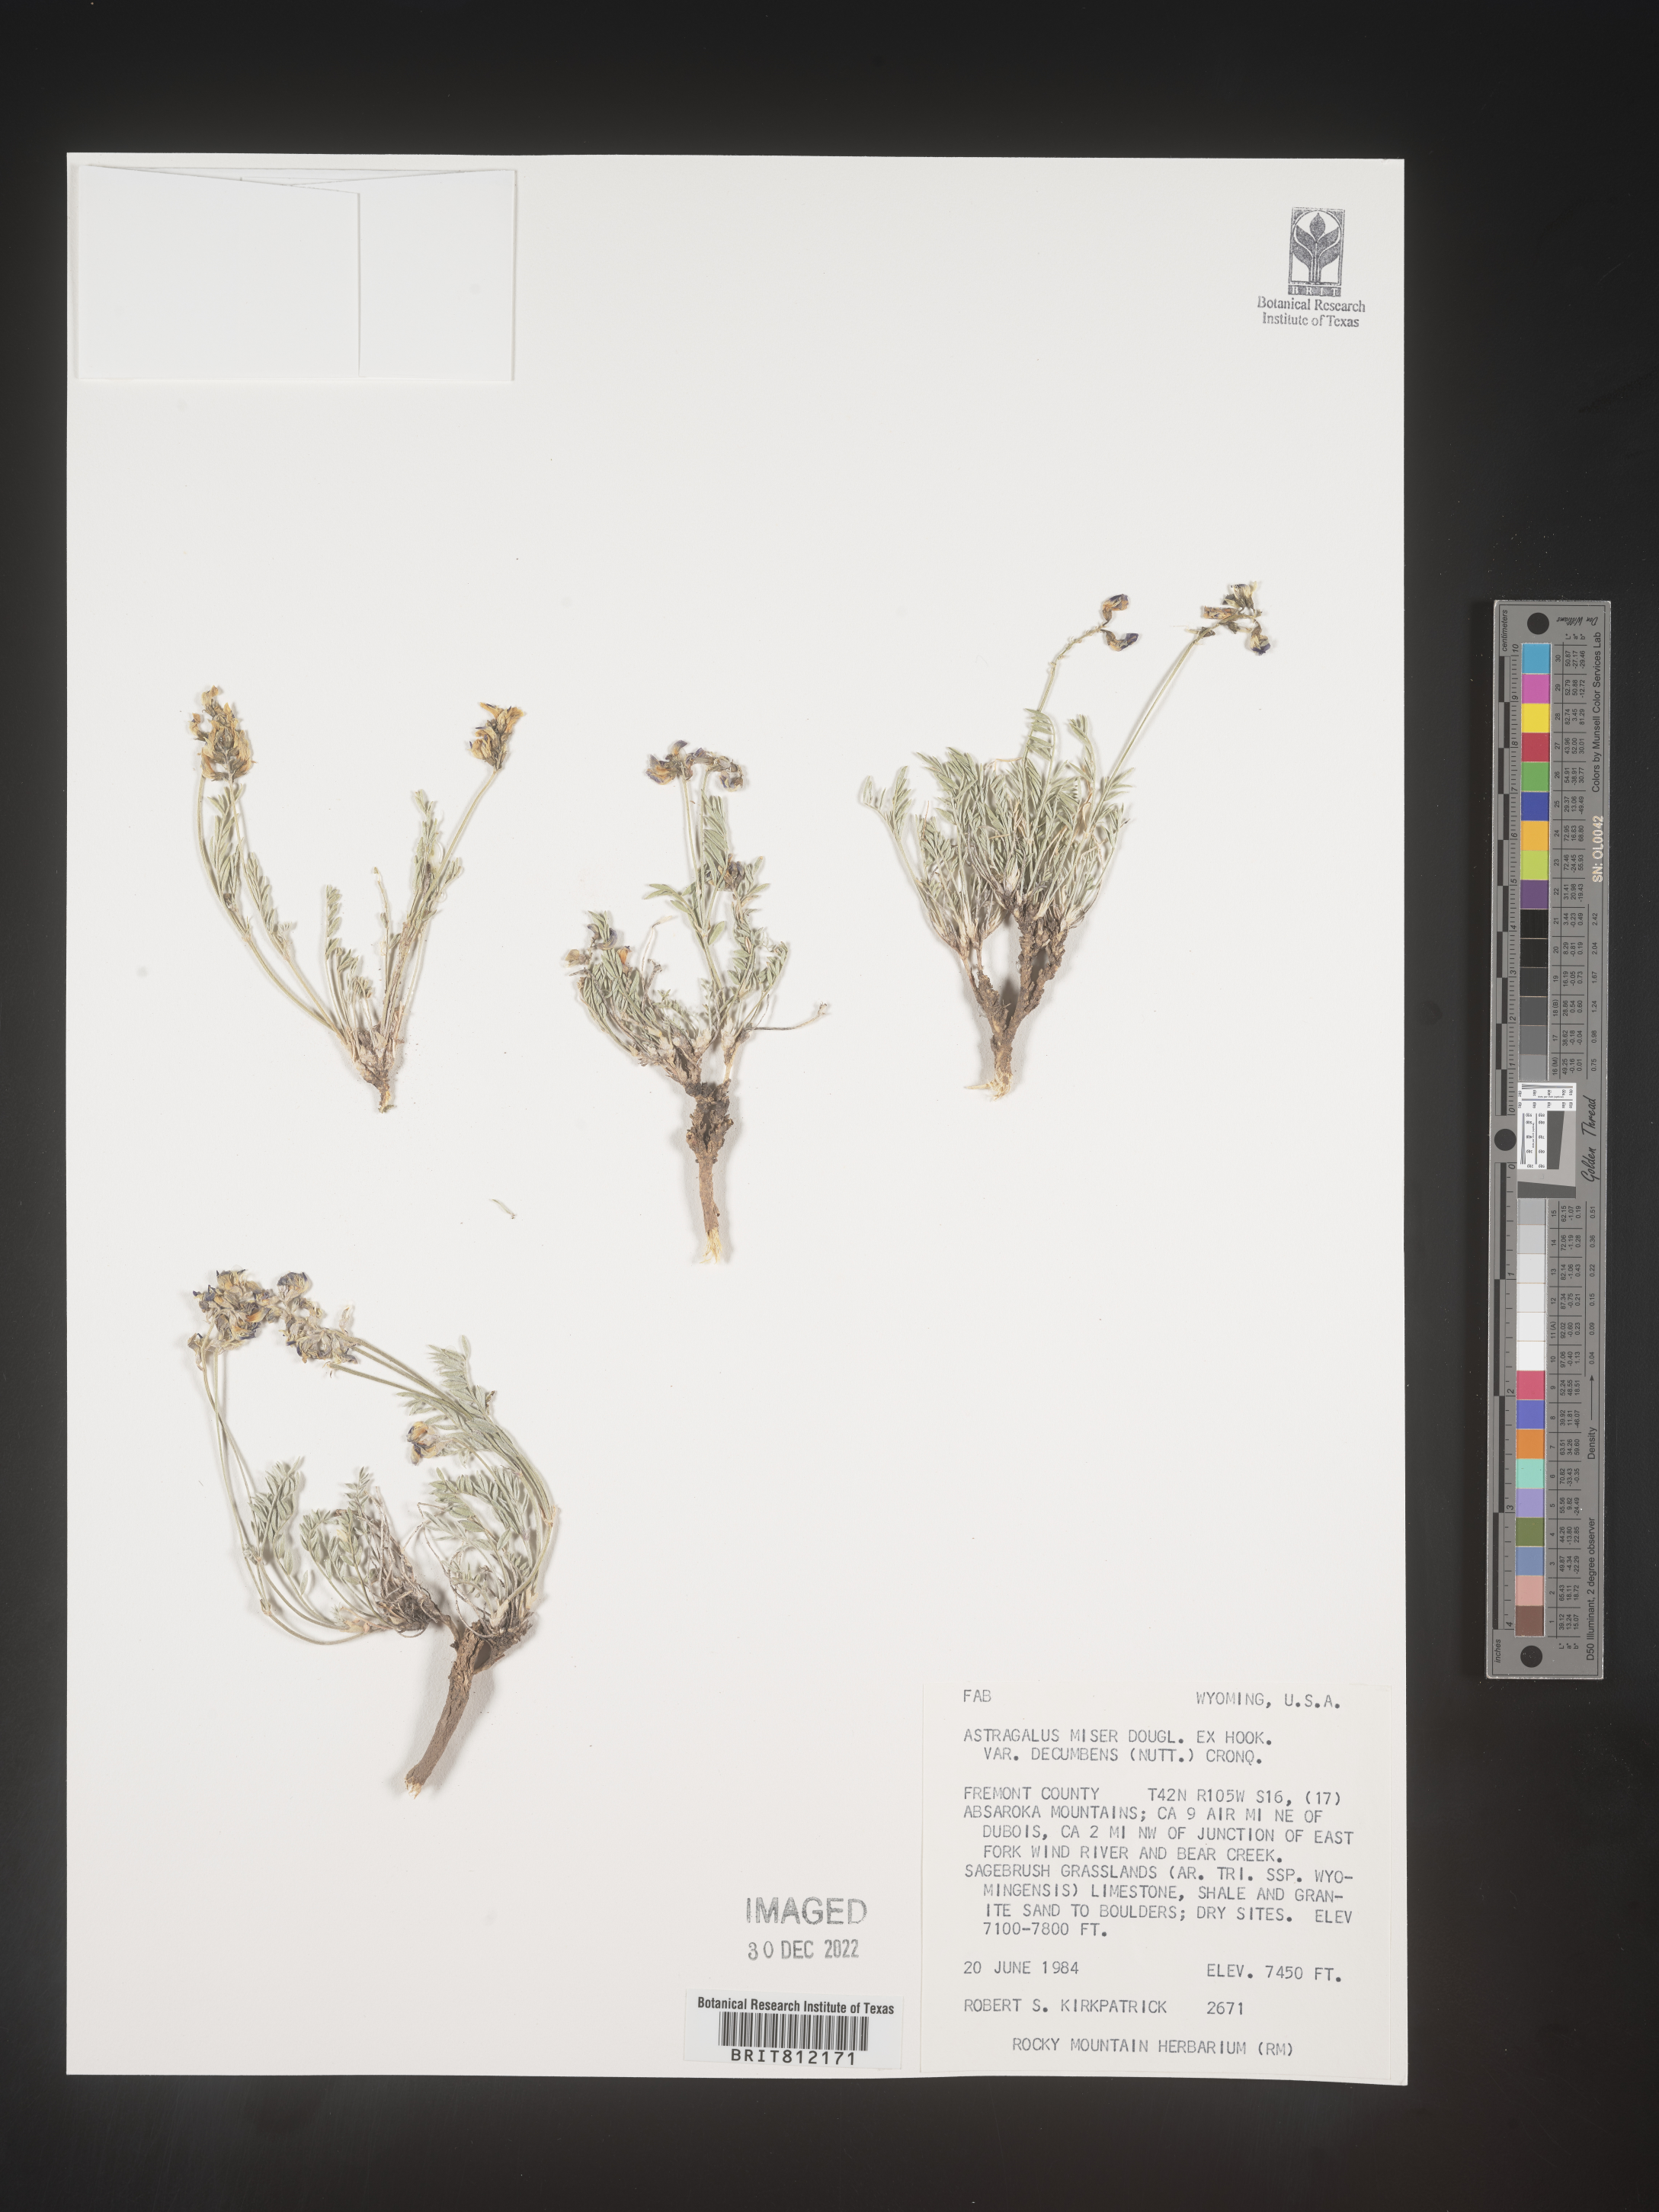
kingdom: Plantae
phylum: Tracheophyta
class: Magnoliopsida
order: Fabales
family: Fabaceae
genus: Astragalus
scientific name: Astragalus miser
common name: Timber milkvetch
